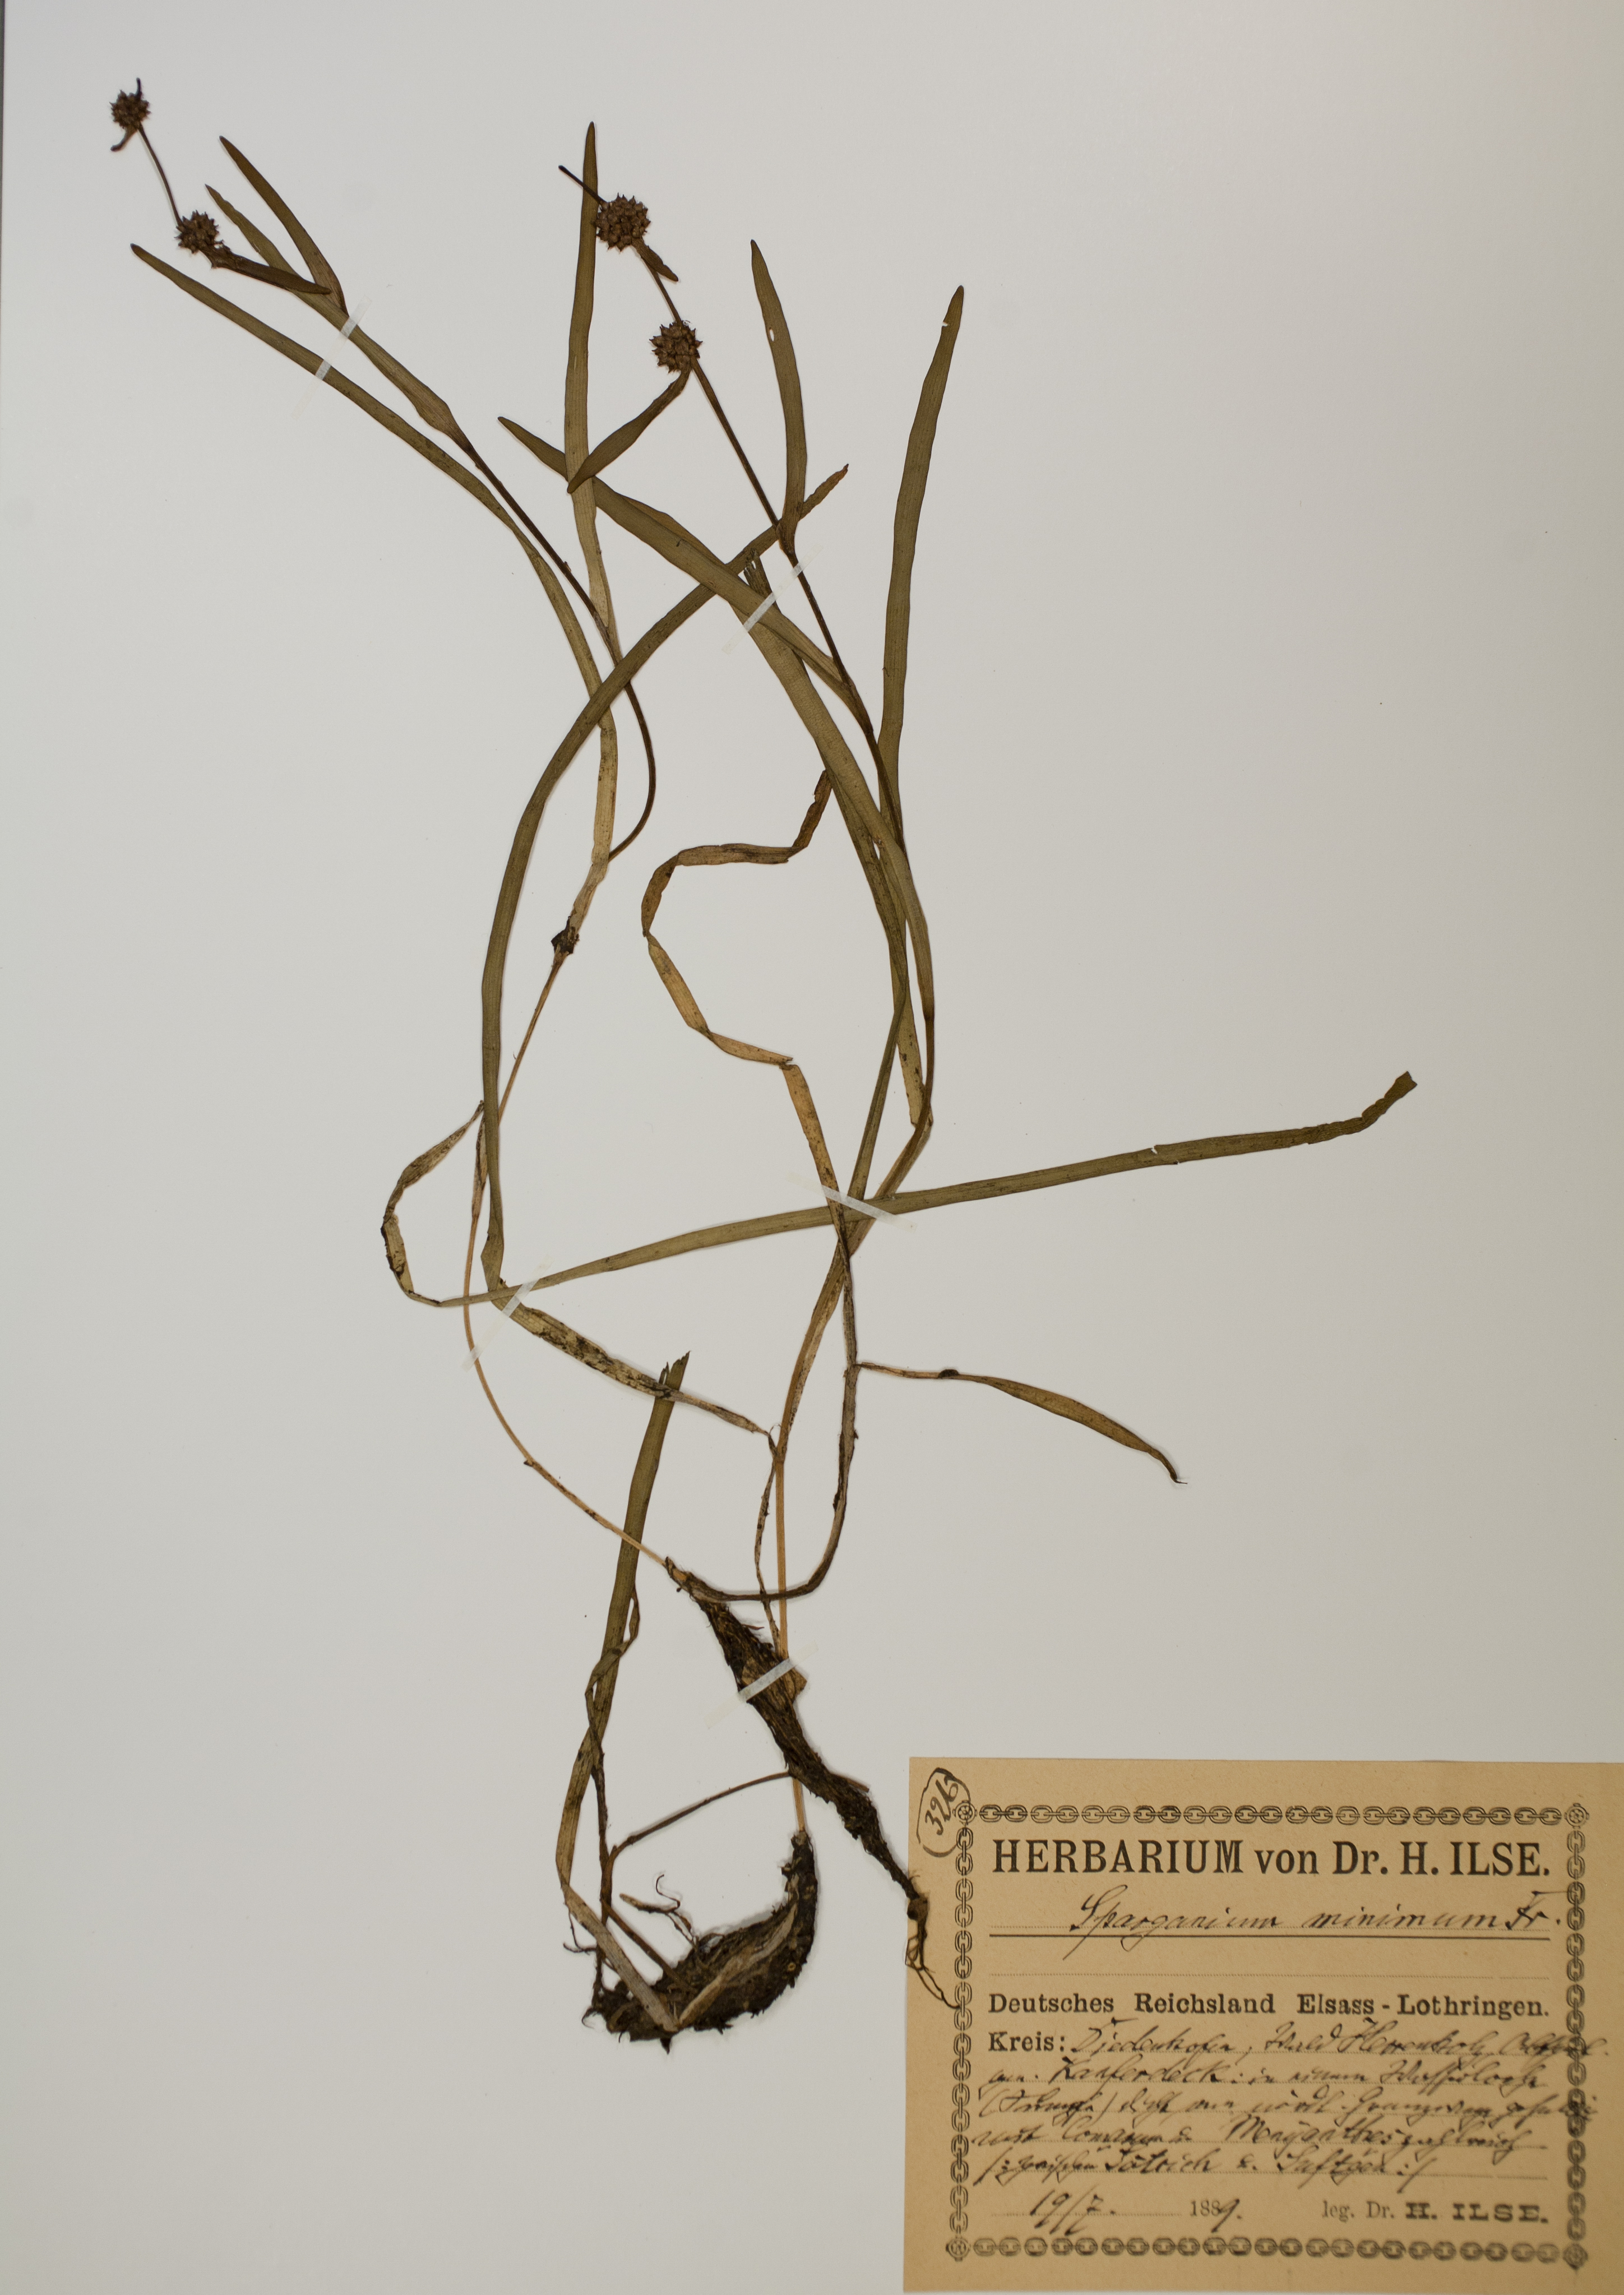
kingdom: Plantae
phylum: Tracheophyta
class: Liliopsida
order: Poales
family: Typhaceae
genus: Sparganium
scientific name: Sparganium natans
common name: Least bur-reed
